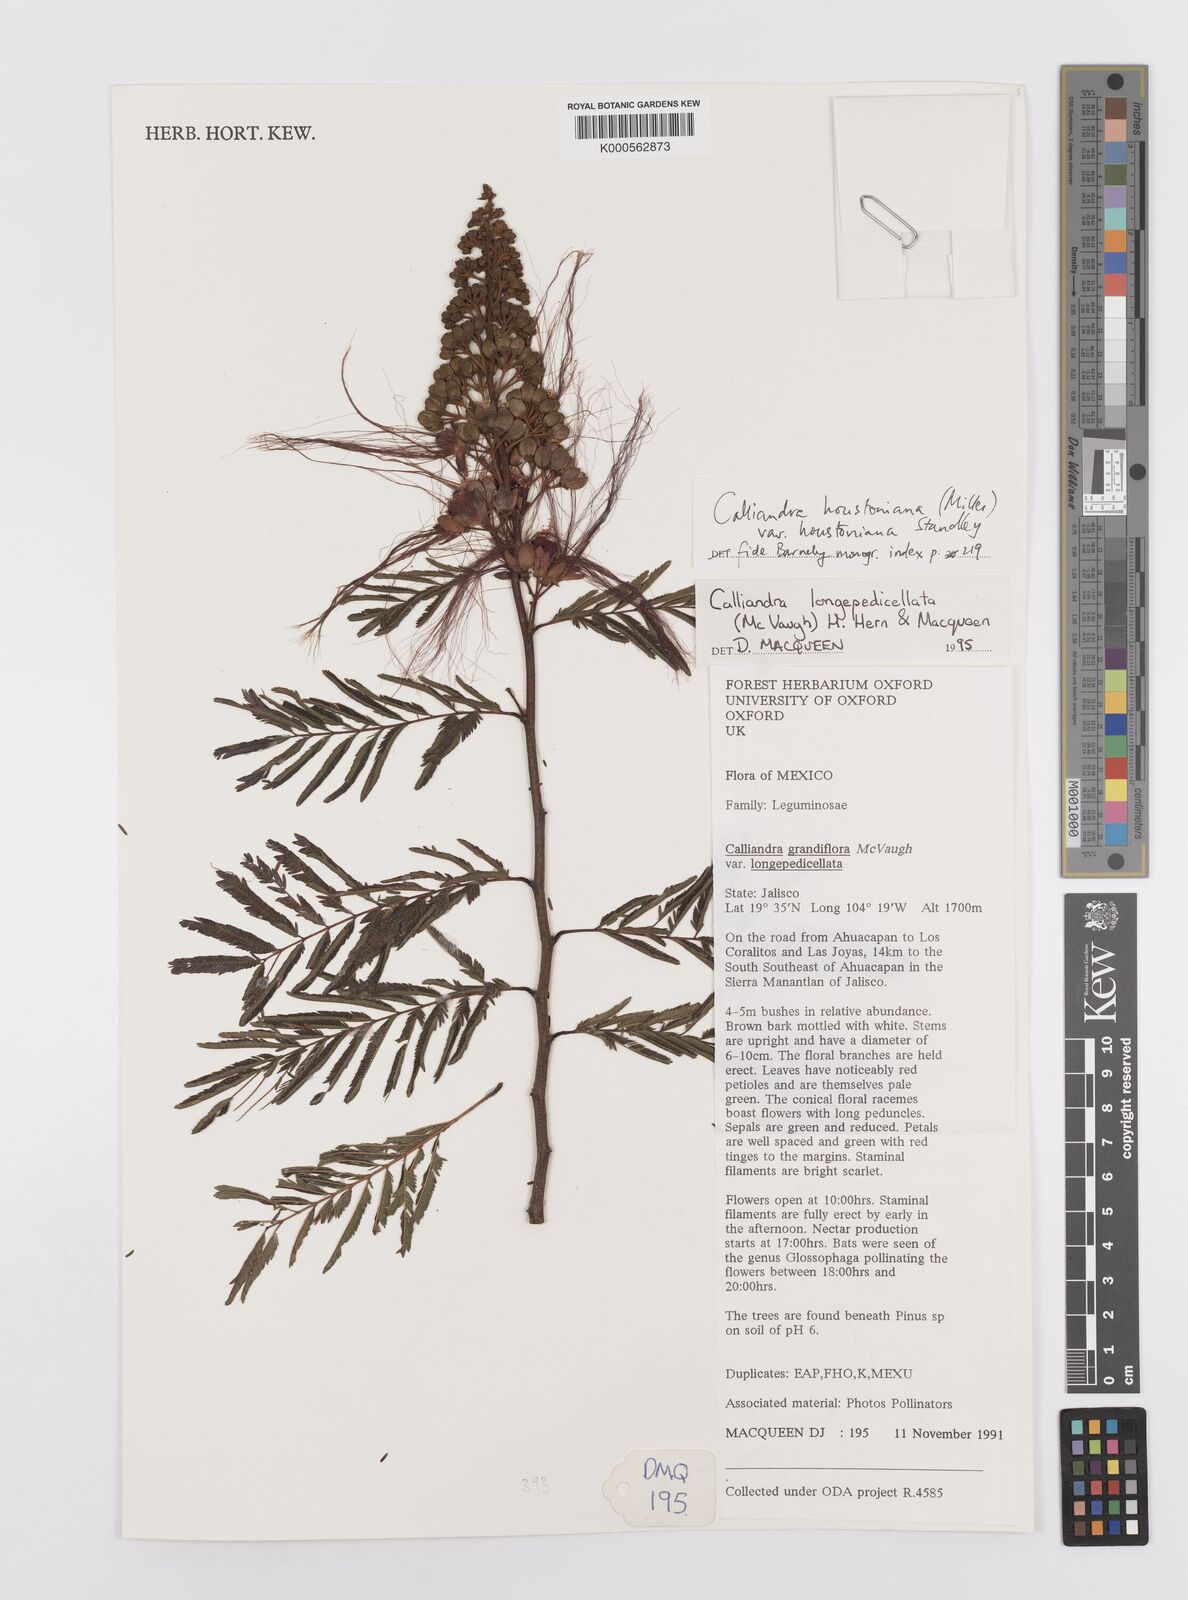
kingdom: Plantae
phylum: Tracheophyta
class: Magnoliopsida
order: Fabales
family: Fabaceae
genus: Calliandra
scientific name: Calliandra houstoniana
